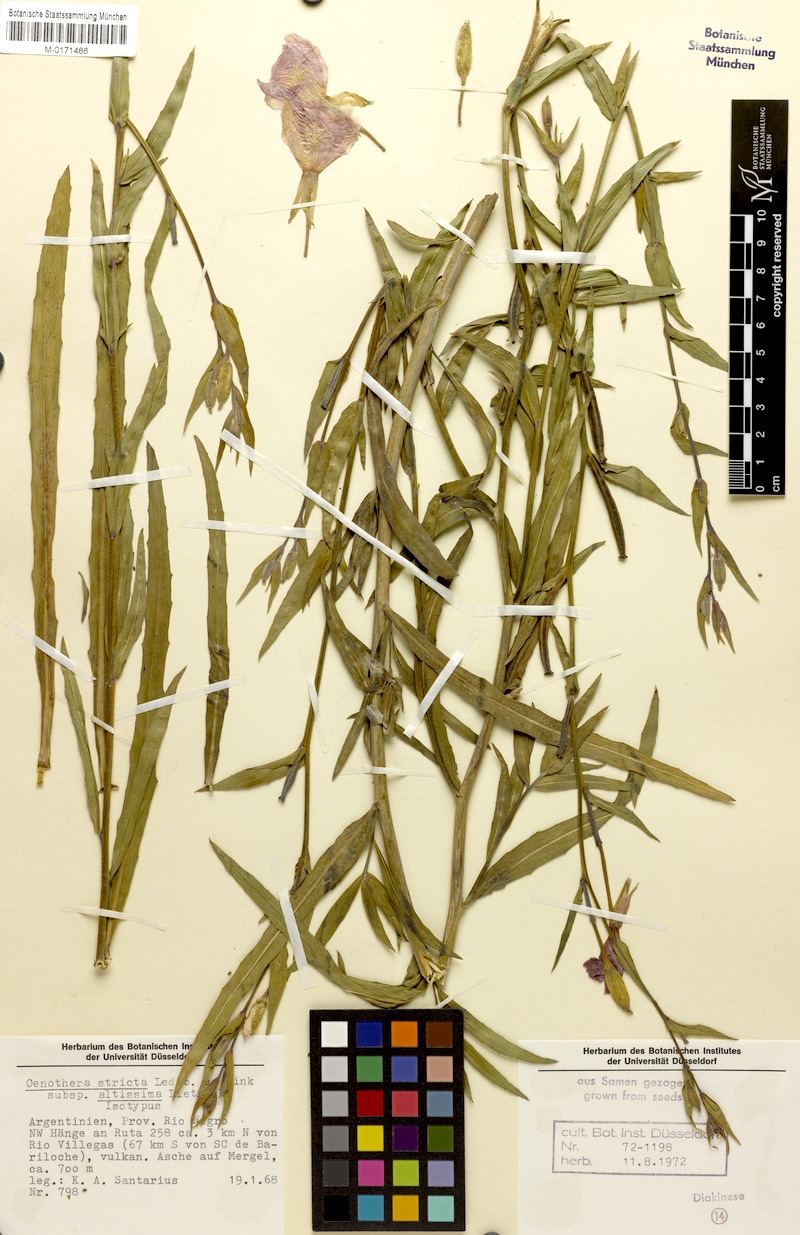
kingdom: Plantae
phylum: Tracheophyta
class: Magnoliopsida
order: Myrtales
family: Onagraceae
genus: Oenothera
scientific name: Oenothera stricta
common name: Fragrant evening-primrose
